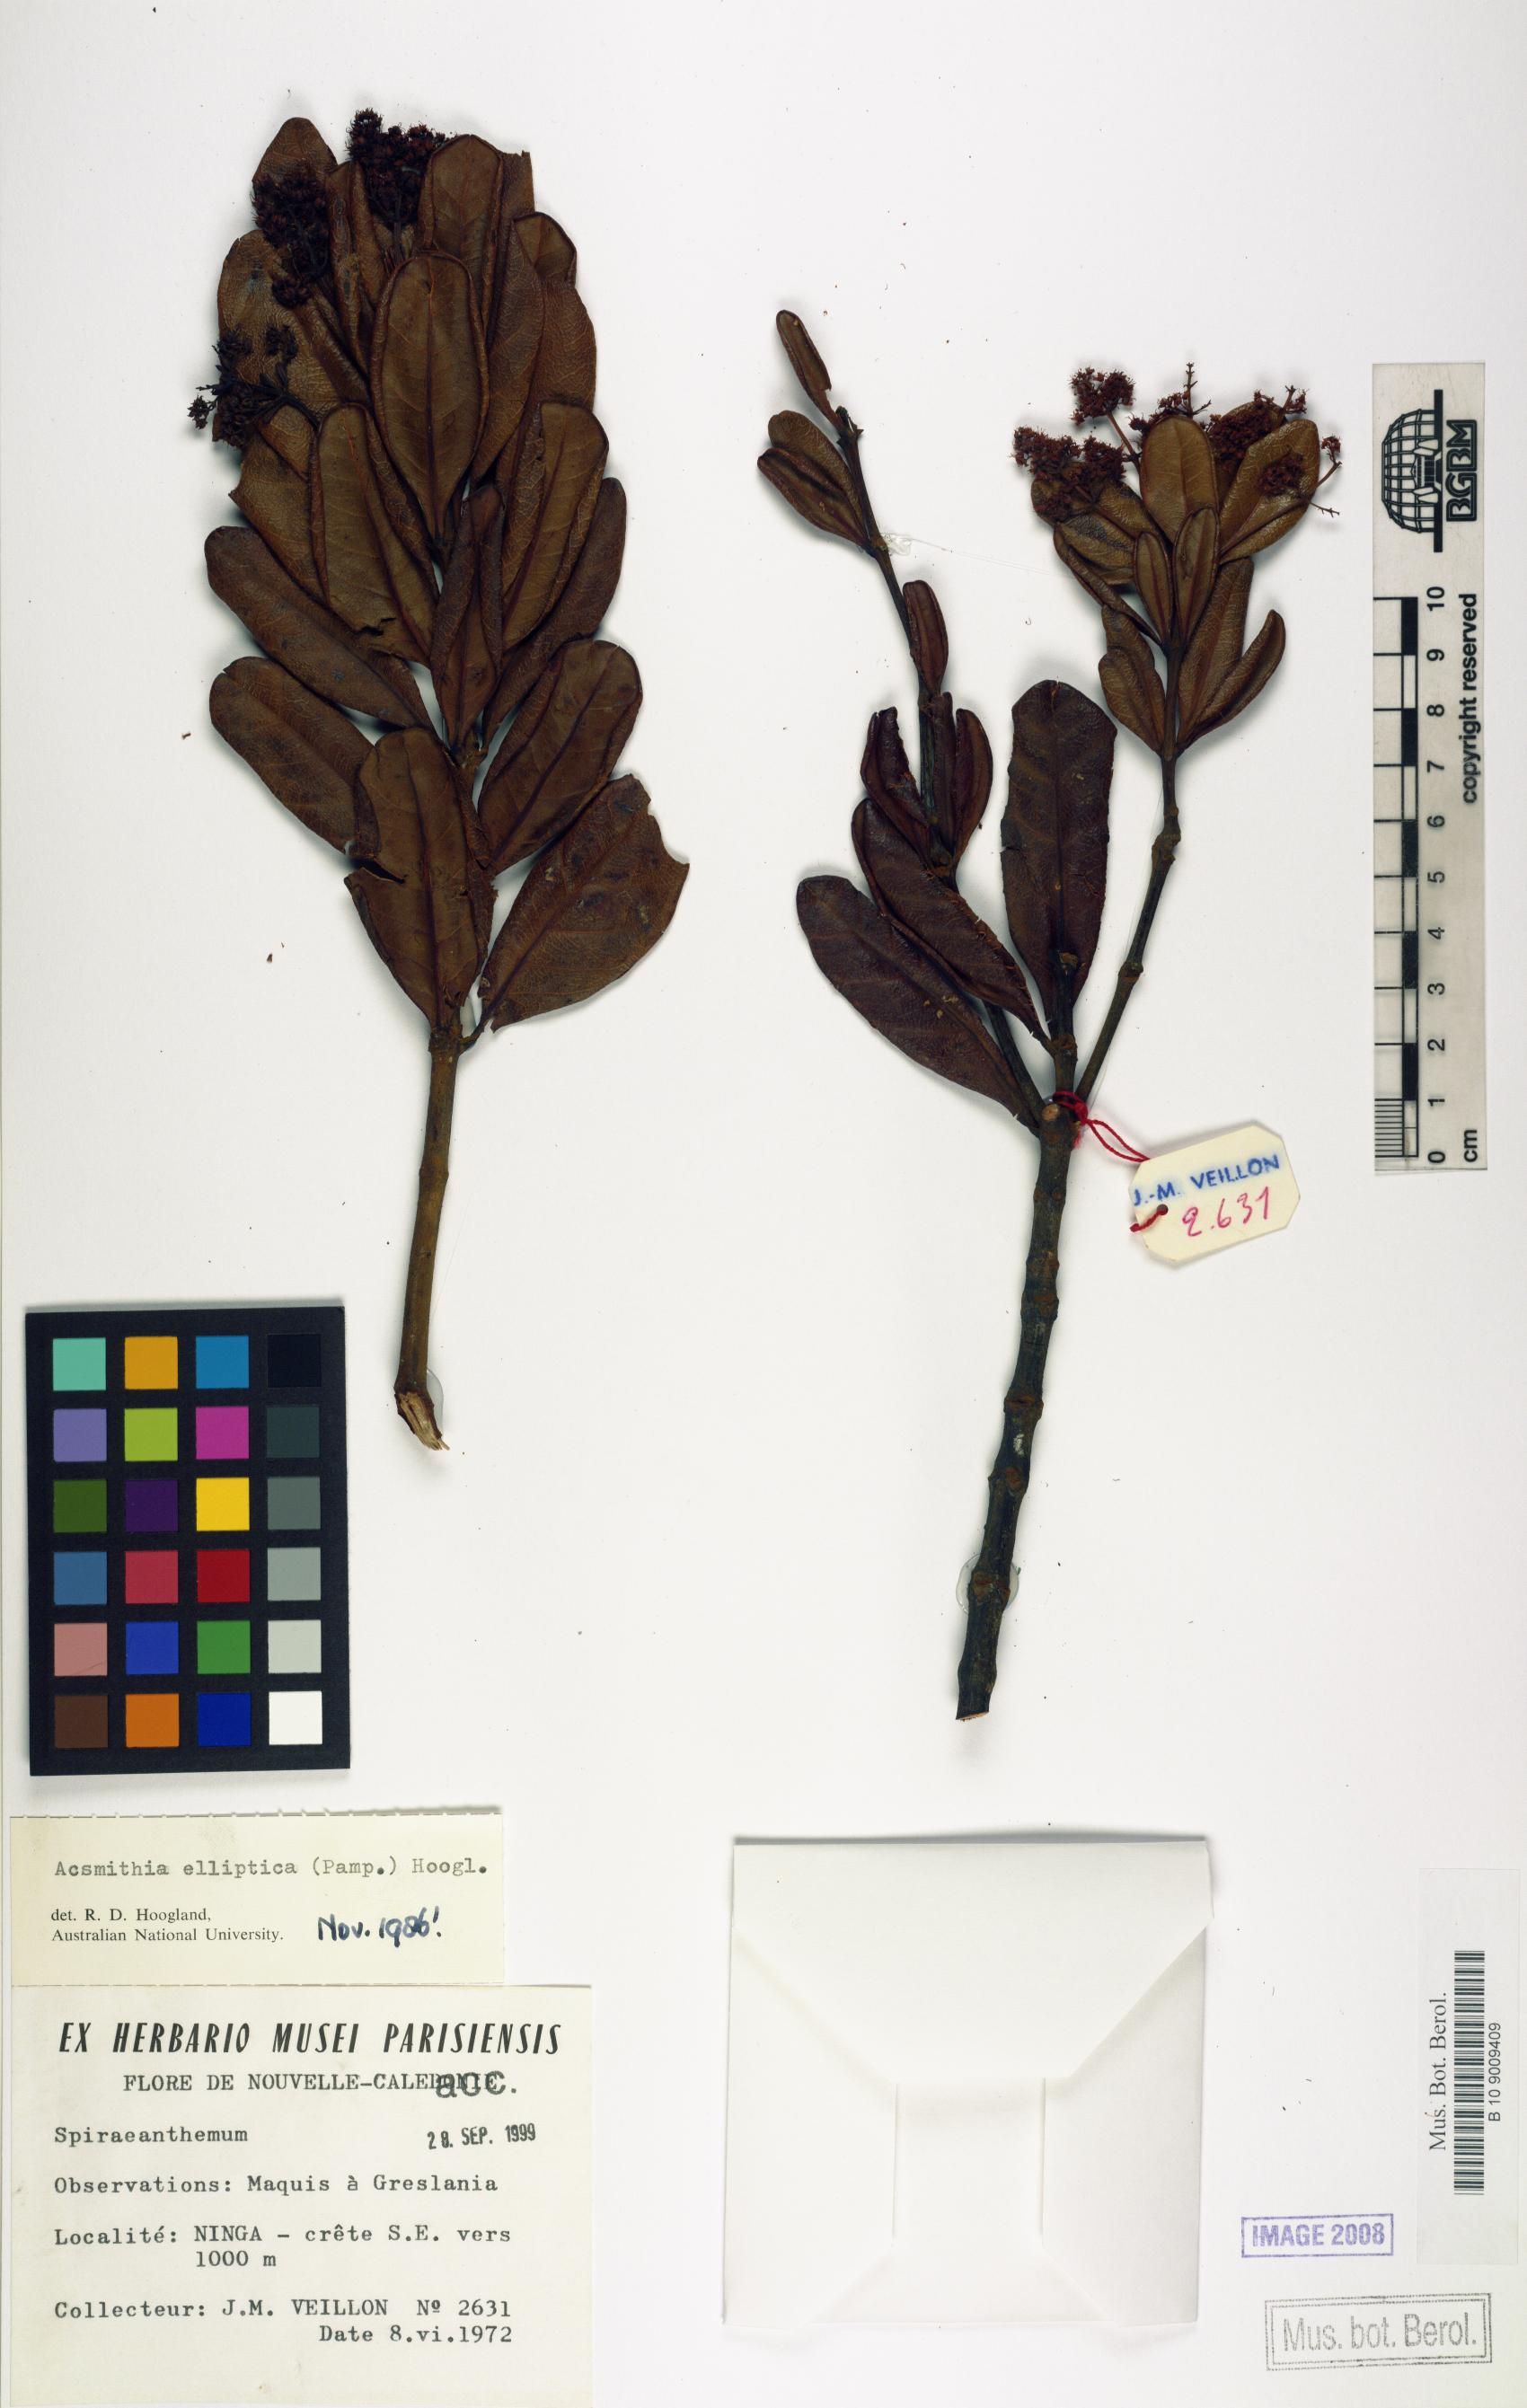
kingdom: Plantae
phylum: Tracheophyta
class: Magnoliopsida
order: Oxalidales
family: Cunoniaceae
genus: Spiraeanthemum
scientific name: Spiraeanthemum ellipticum
